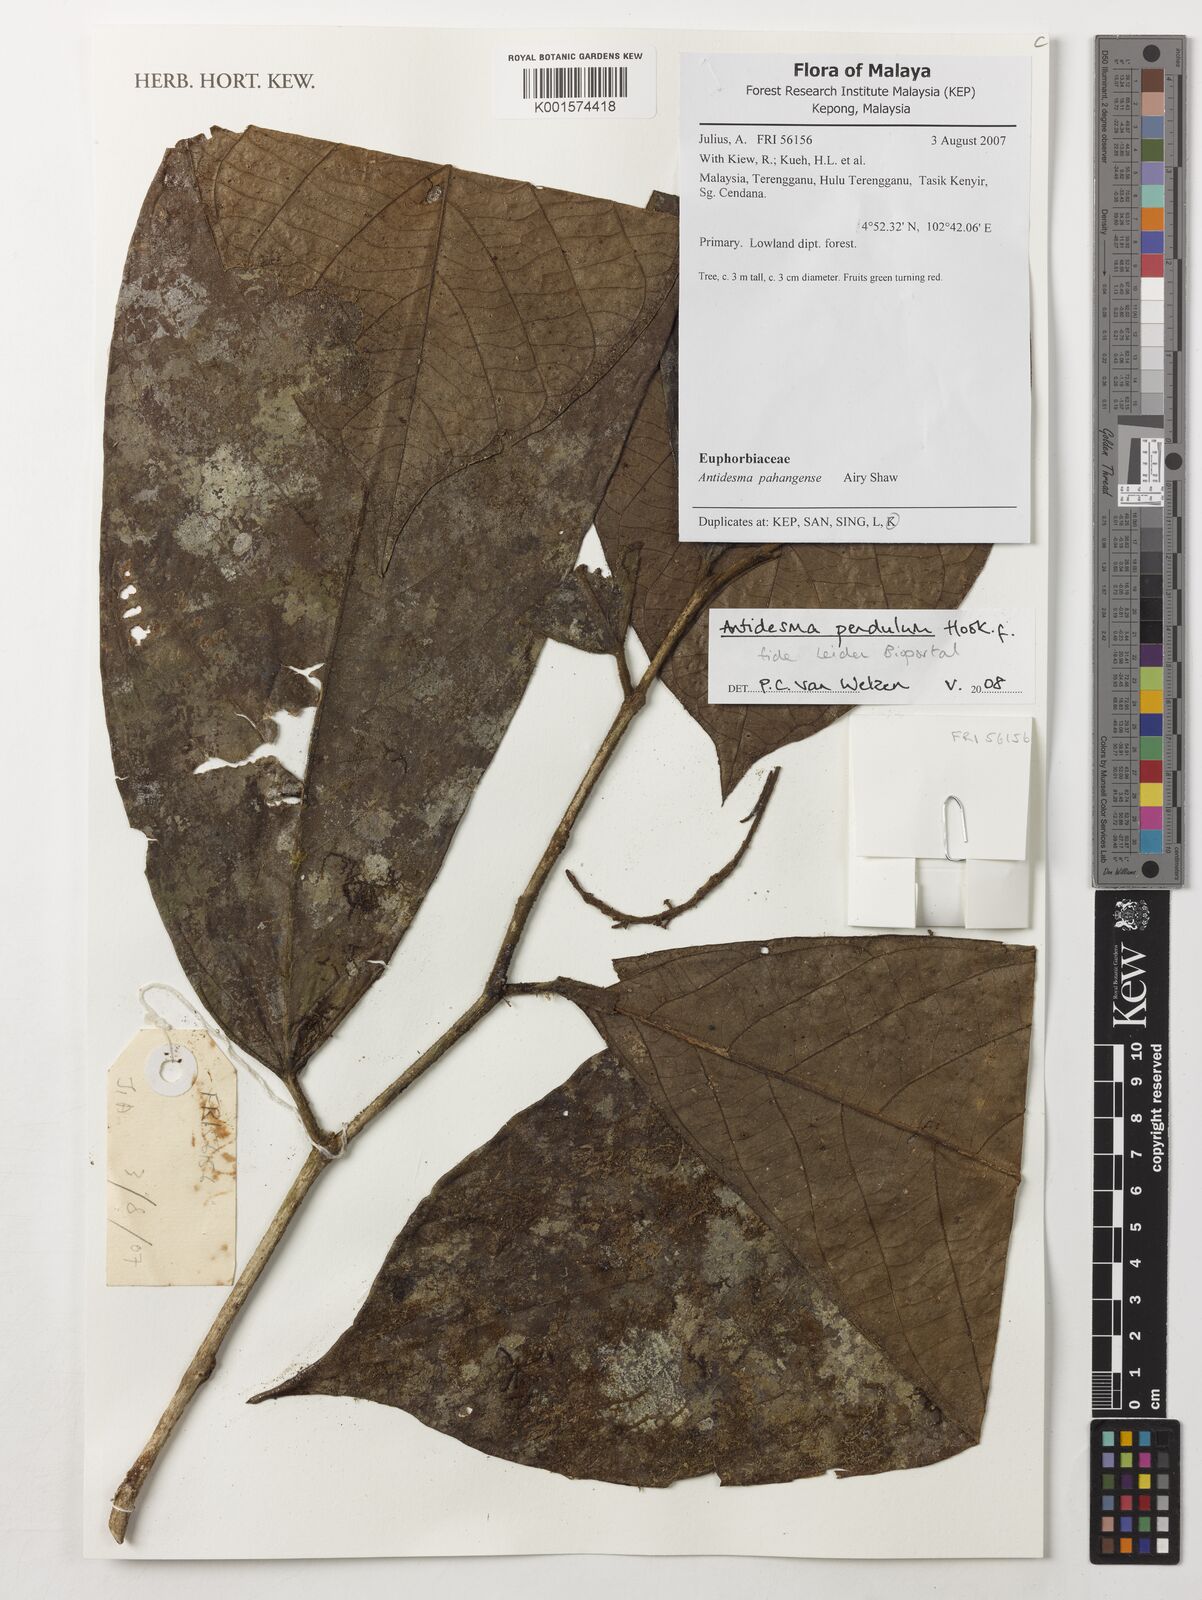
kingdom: Plantae
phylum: Tracheophyta
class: Magnoliopsida
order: Malpighiales
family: Phyllanthaceae
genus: Antidesma
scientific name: Antidesma pendulum
